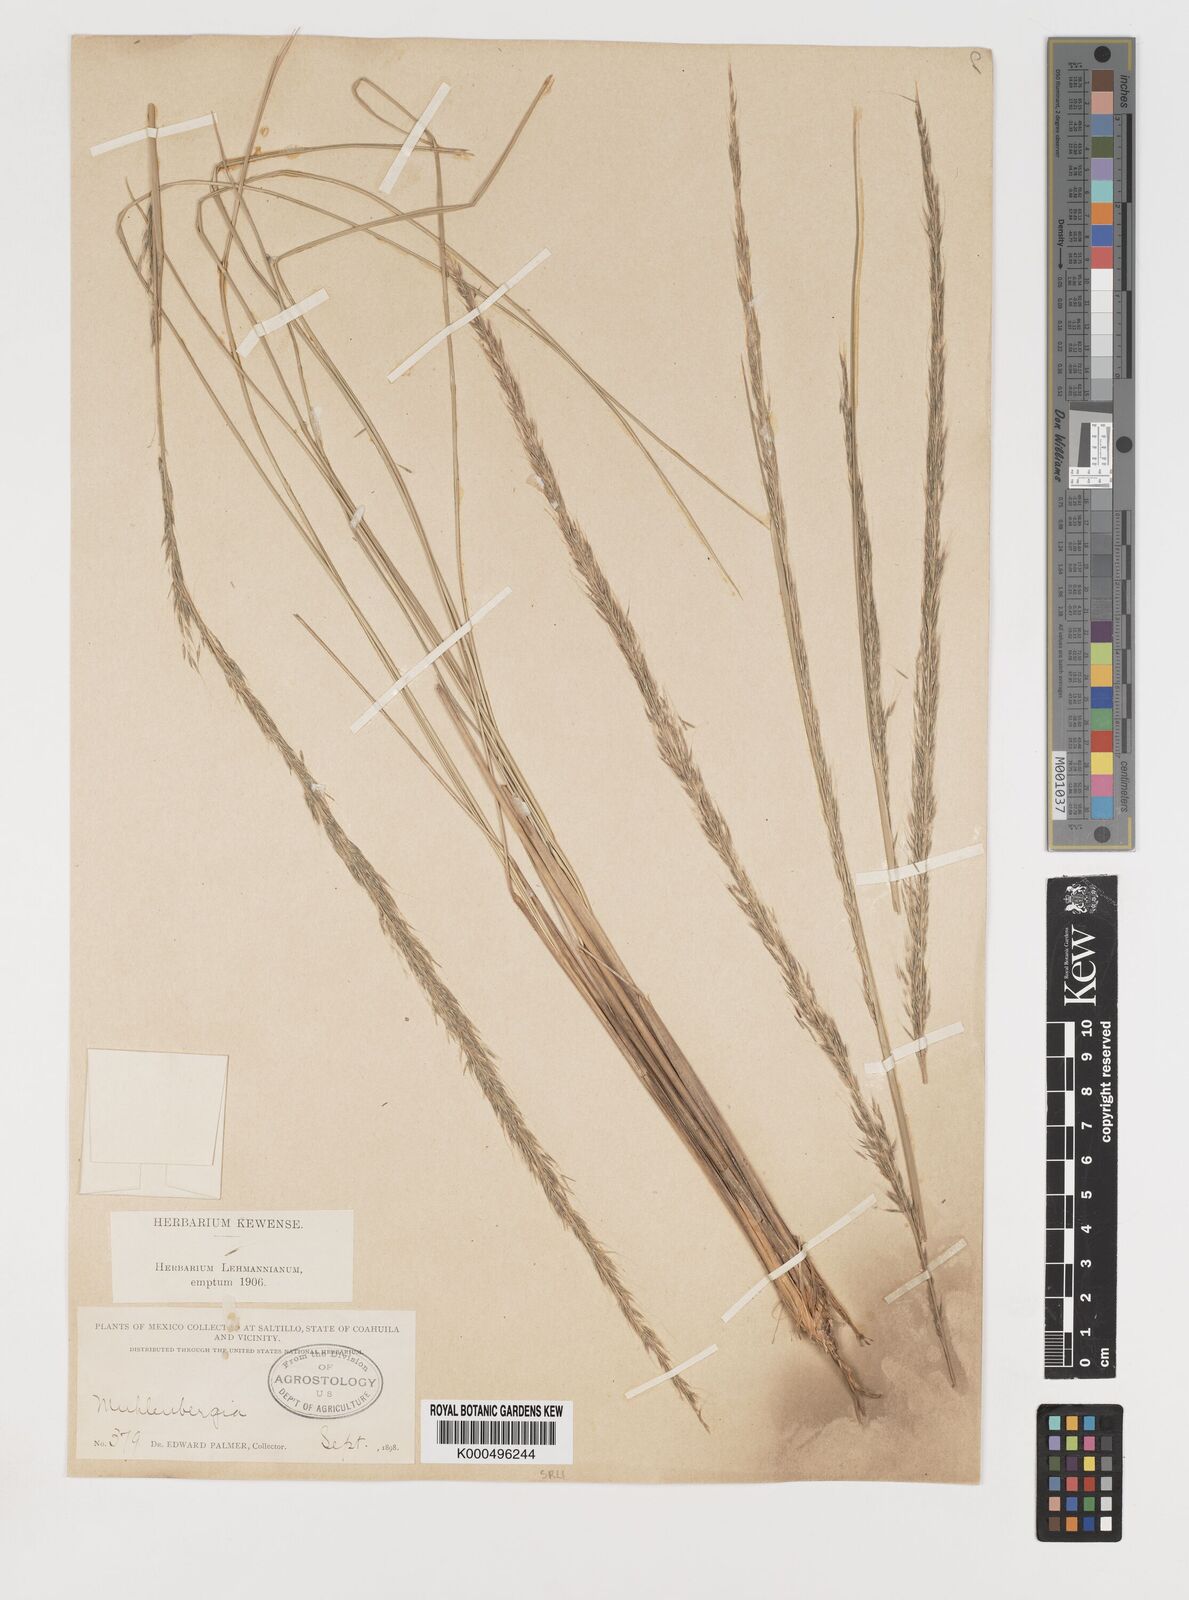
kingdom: Plantae
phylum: Tracheophyta
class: Liliopsida
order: Poales
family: Poaceae
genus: Muhlenbergia
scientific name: Muhlenbergia
